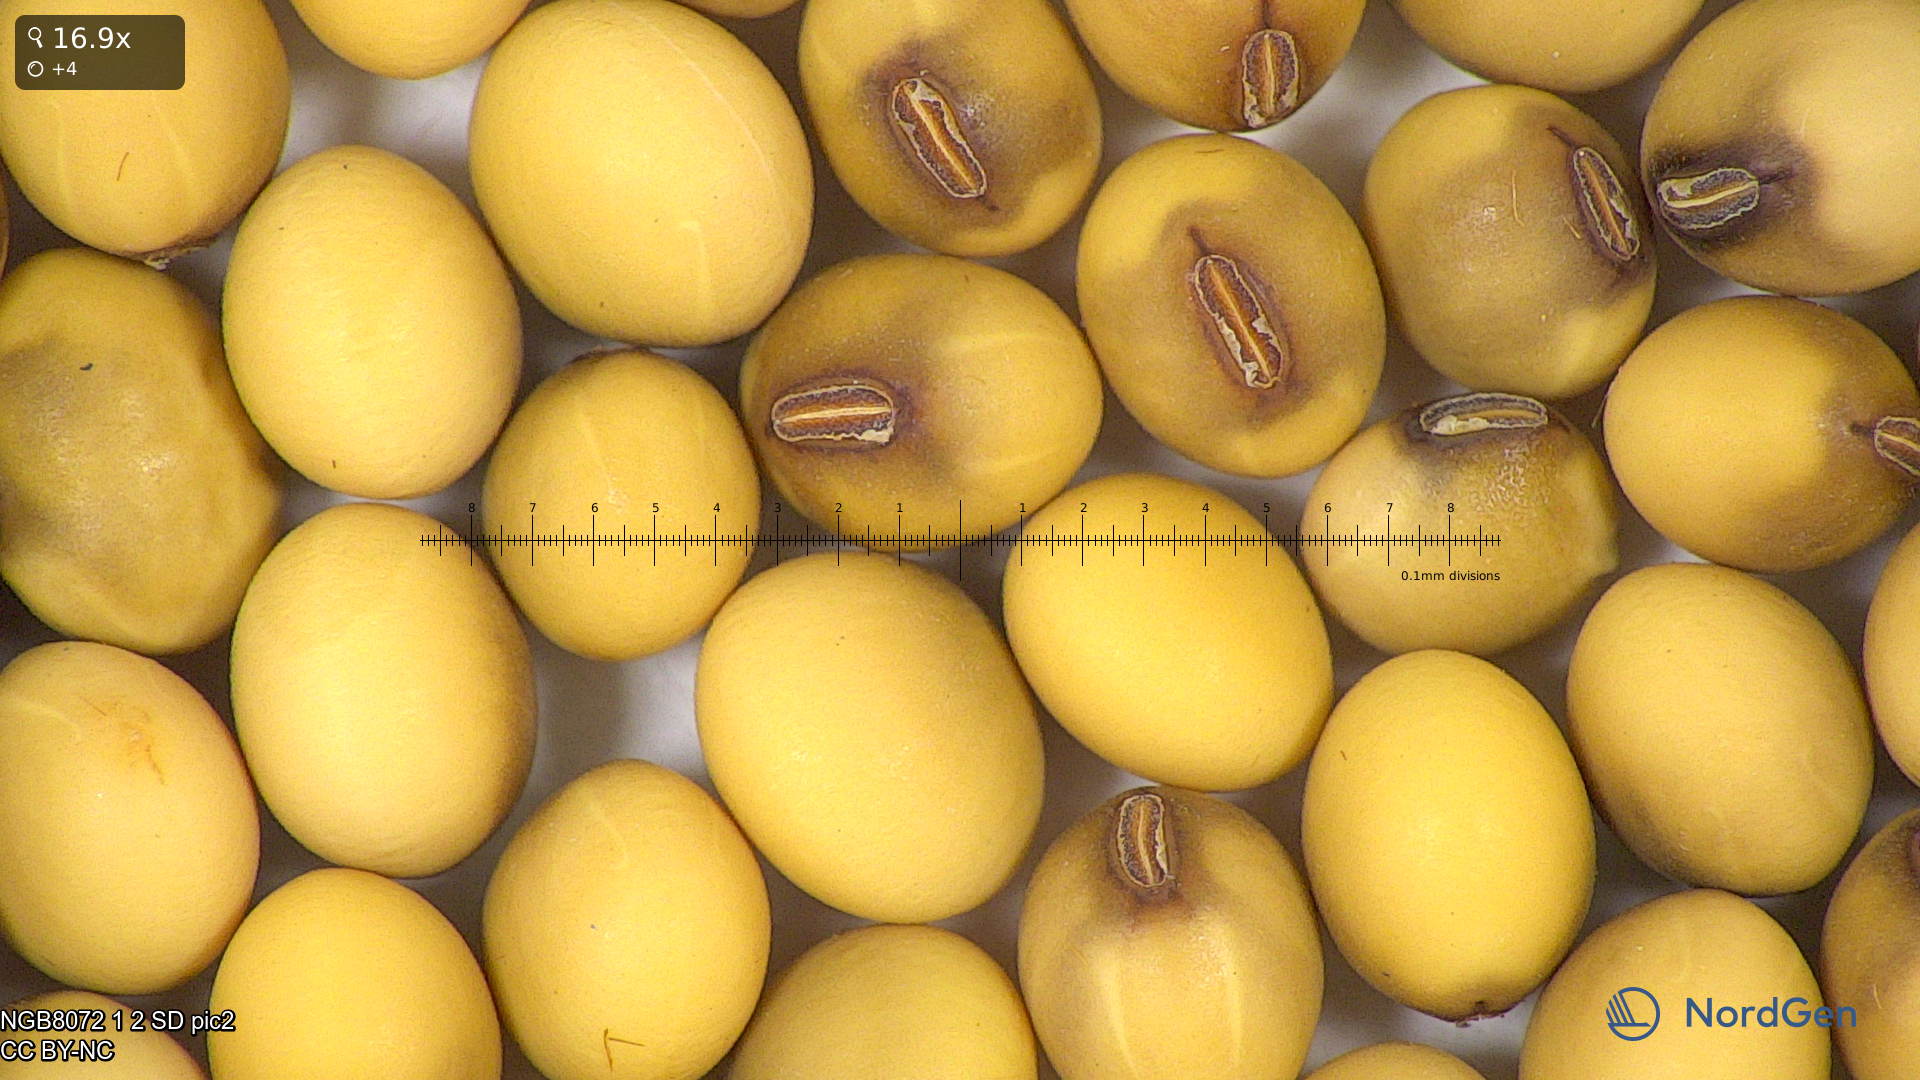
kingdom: Plantae
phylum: Tracheophyta
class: Magnoliopsida
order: Fabales
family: Fabaceae
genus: Glycine
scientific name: Glycine max
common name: Soya-bean
